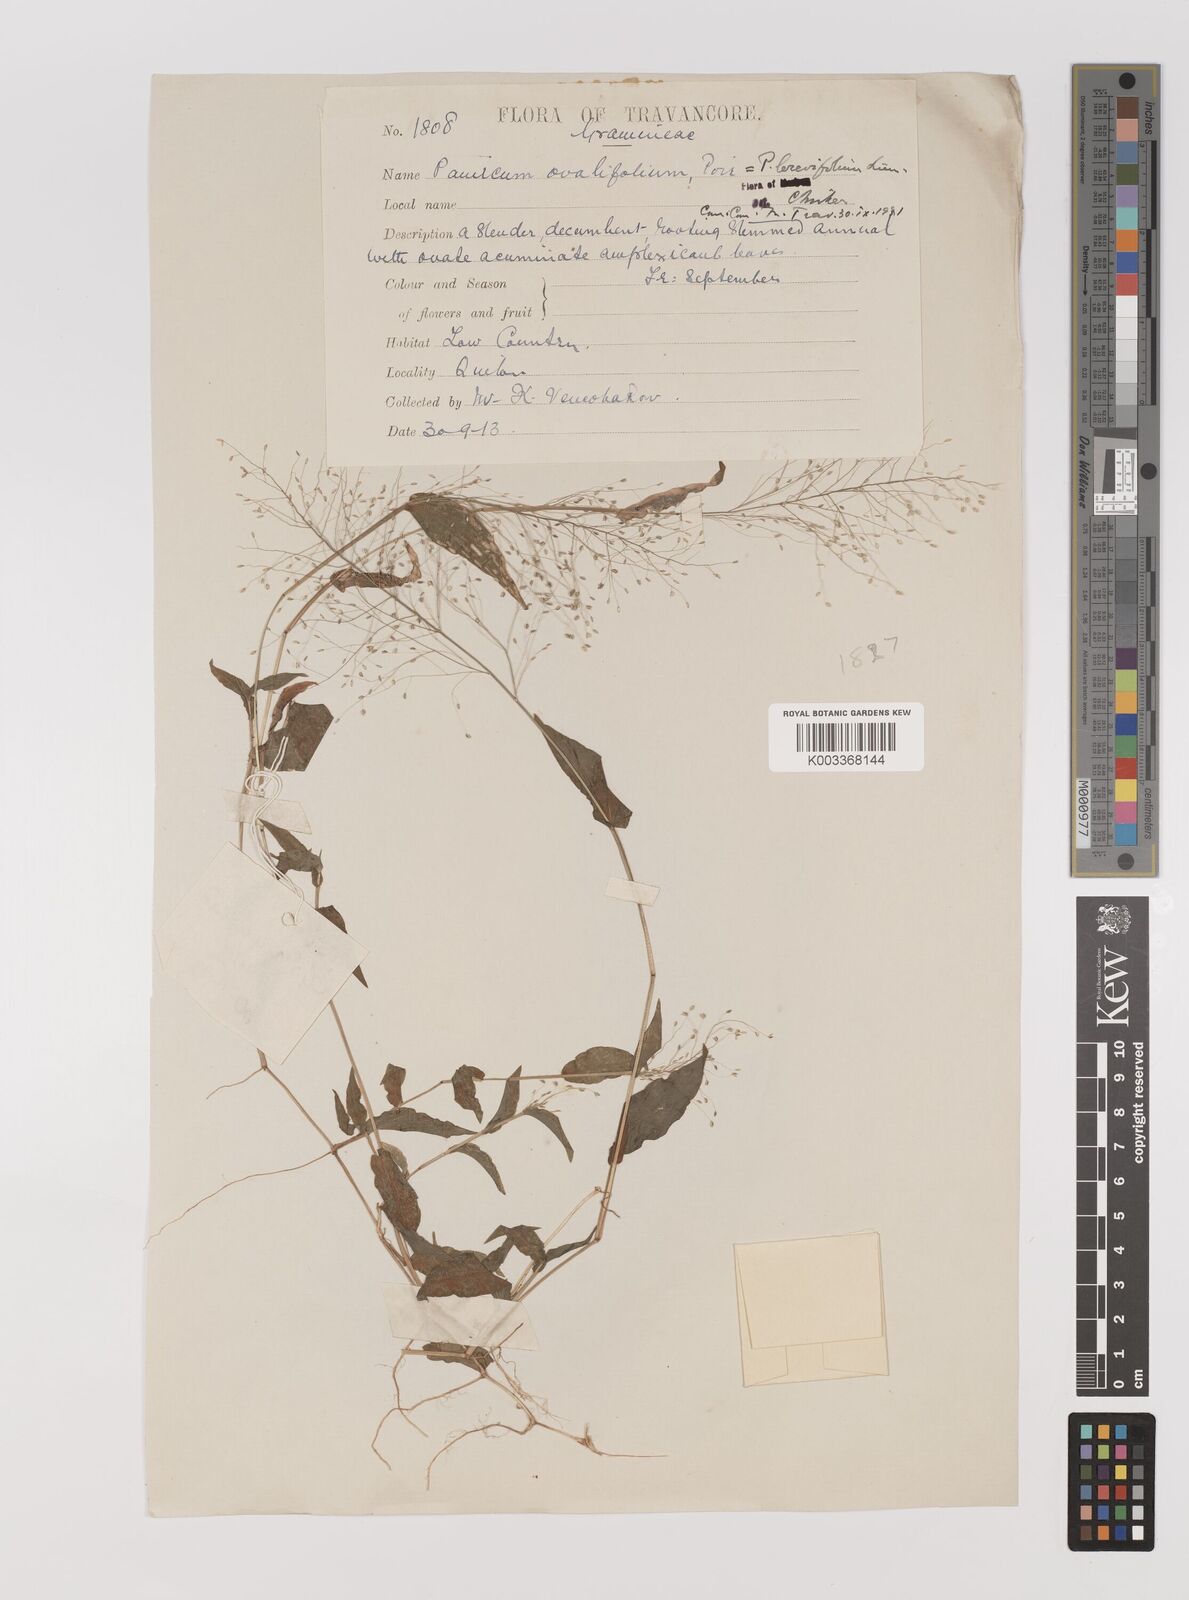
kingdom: Plantae
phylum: Tracheophyta
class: Liliopsida
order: Poales
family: Poaceae
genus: Panicum
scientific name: Panicum brevifolium
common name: Shortleaf panic grass
